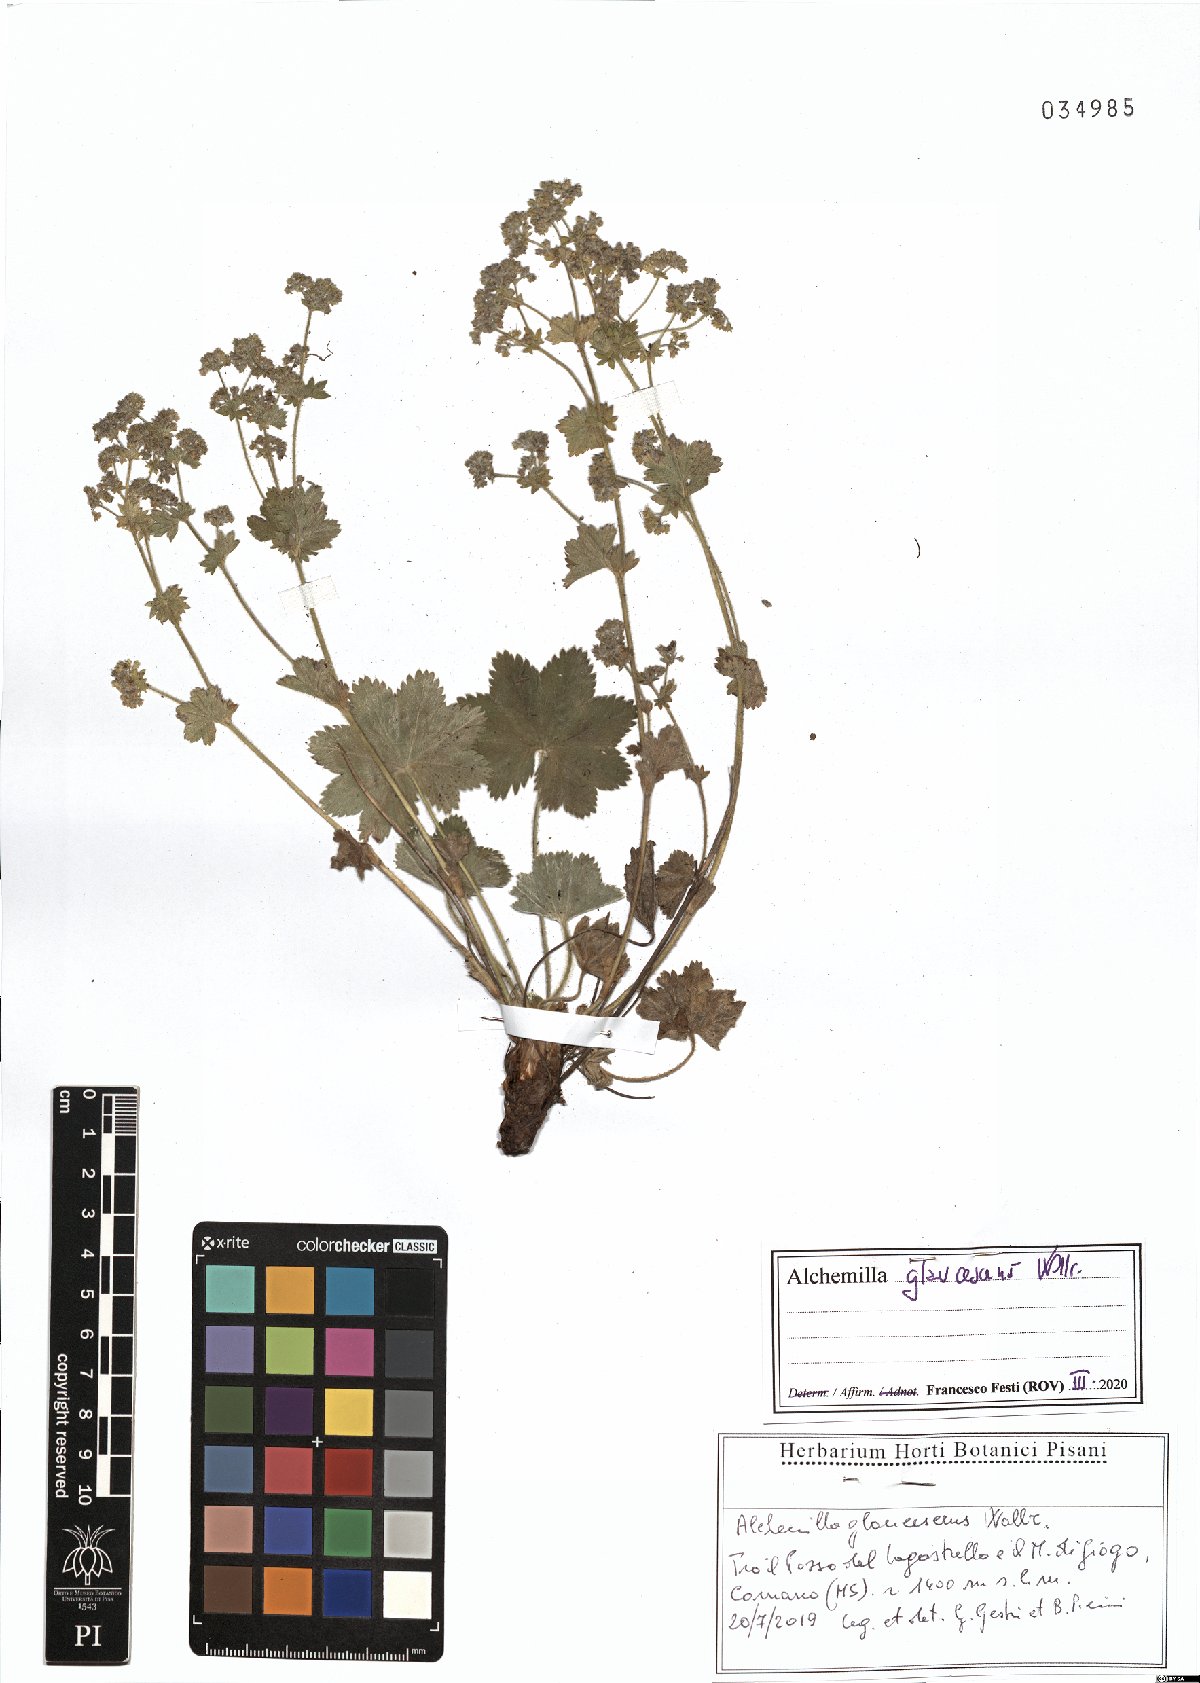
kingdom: Plantae
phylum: Tracheophyta
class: Magnoliopsida
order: Rosales
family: Rosaceae
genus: Alchemilla
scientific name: Alchemilla glaucescens
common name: Silky lady's mantle
